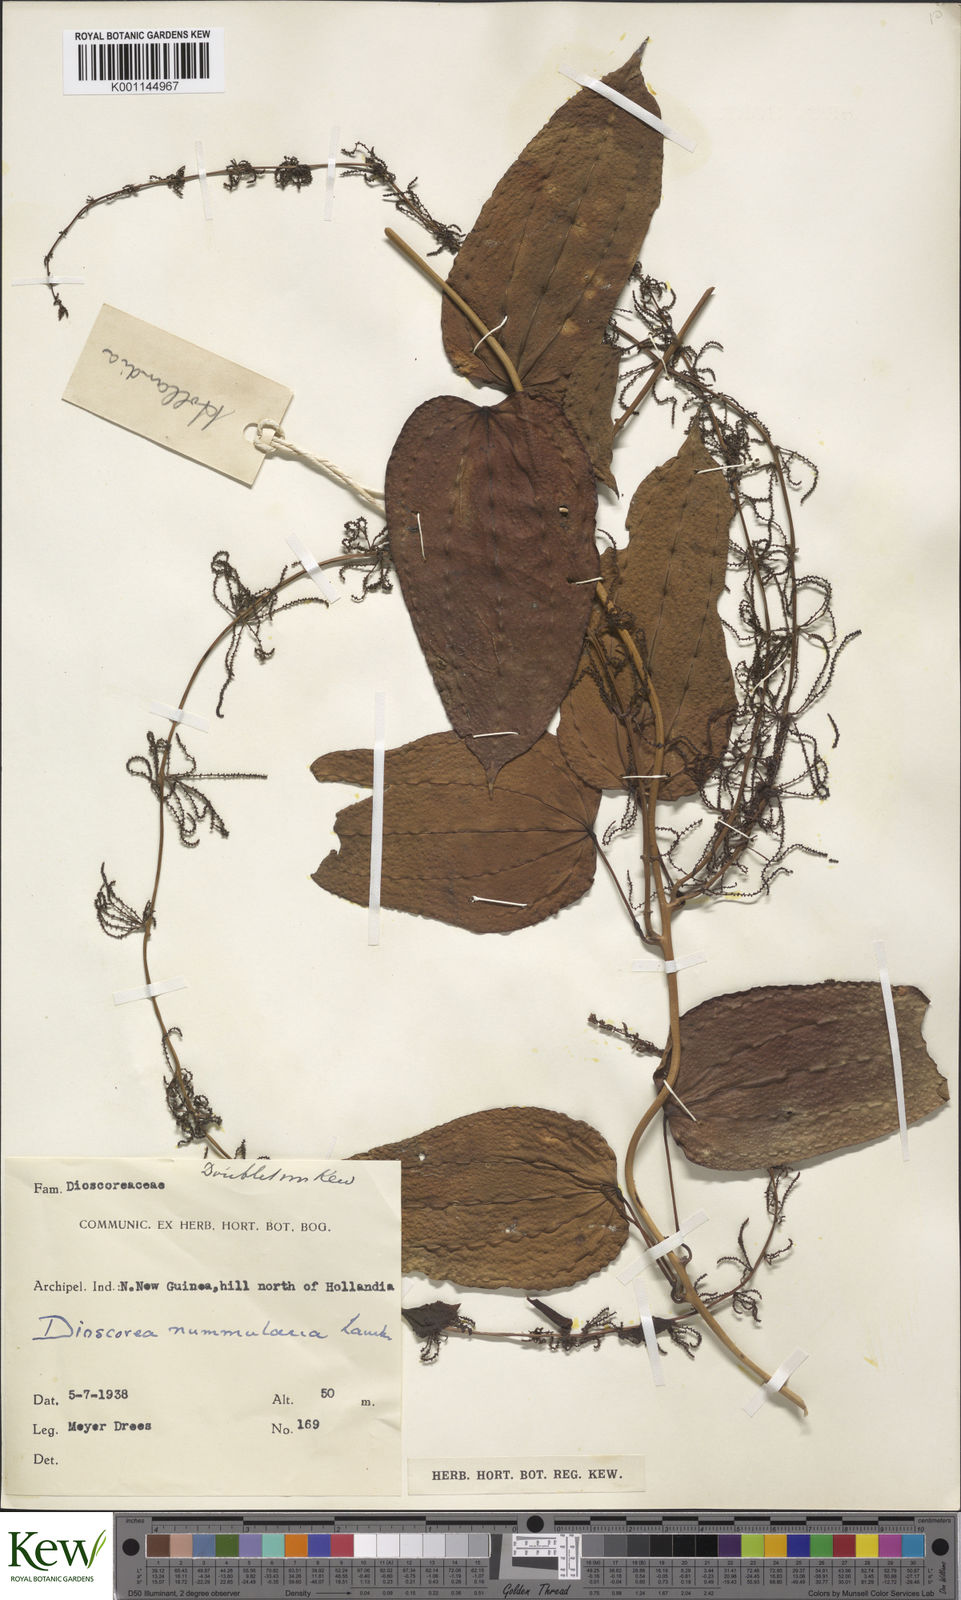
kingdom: Plantae
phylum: Tracheophyta
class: Liliopsida
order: Dioscoreales
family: Dioscoreaceae
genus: Dioscorea
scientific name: Dioscorea nummularia
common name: Pacific yam
